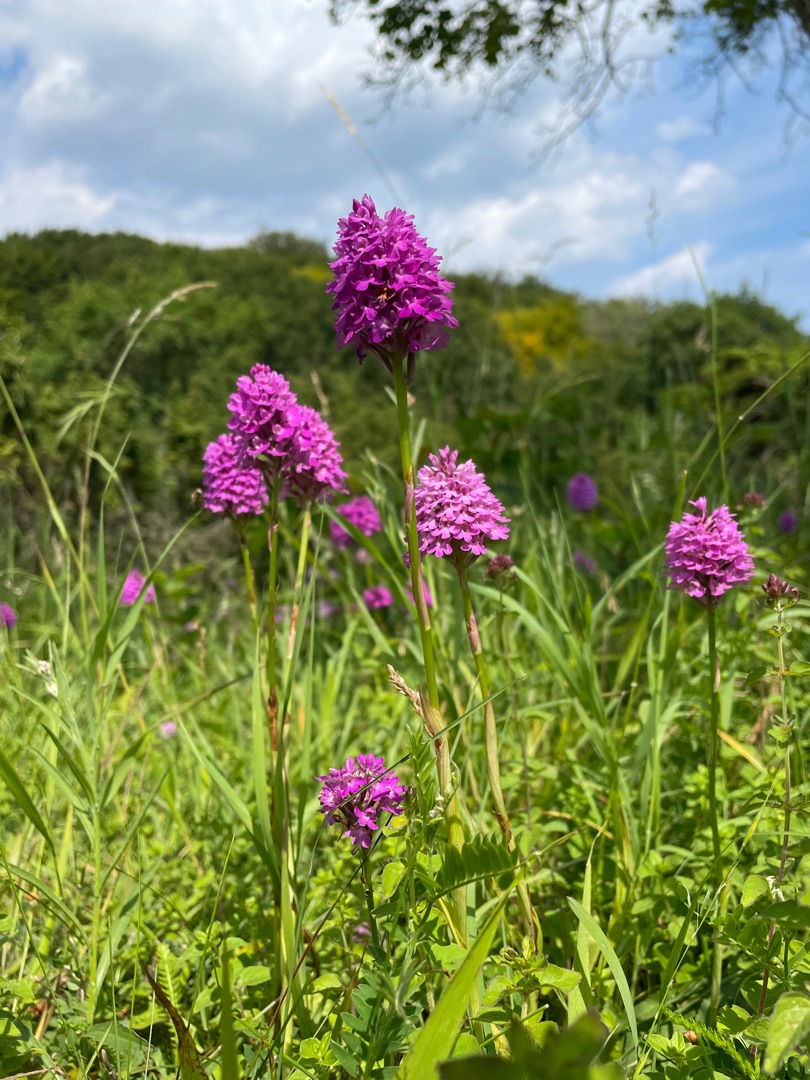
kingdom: Plantae
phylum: Tracheophyta
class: Liliopsida
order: Asparagales
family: Orchidaceae
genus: Anacamptis
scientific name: Anacamptis pyramidalis
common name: Horndrager
